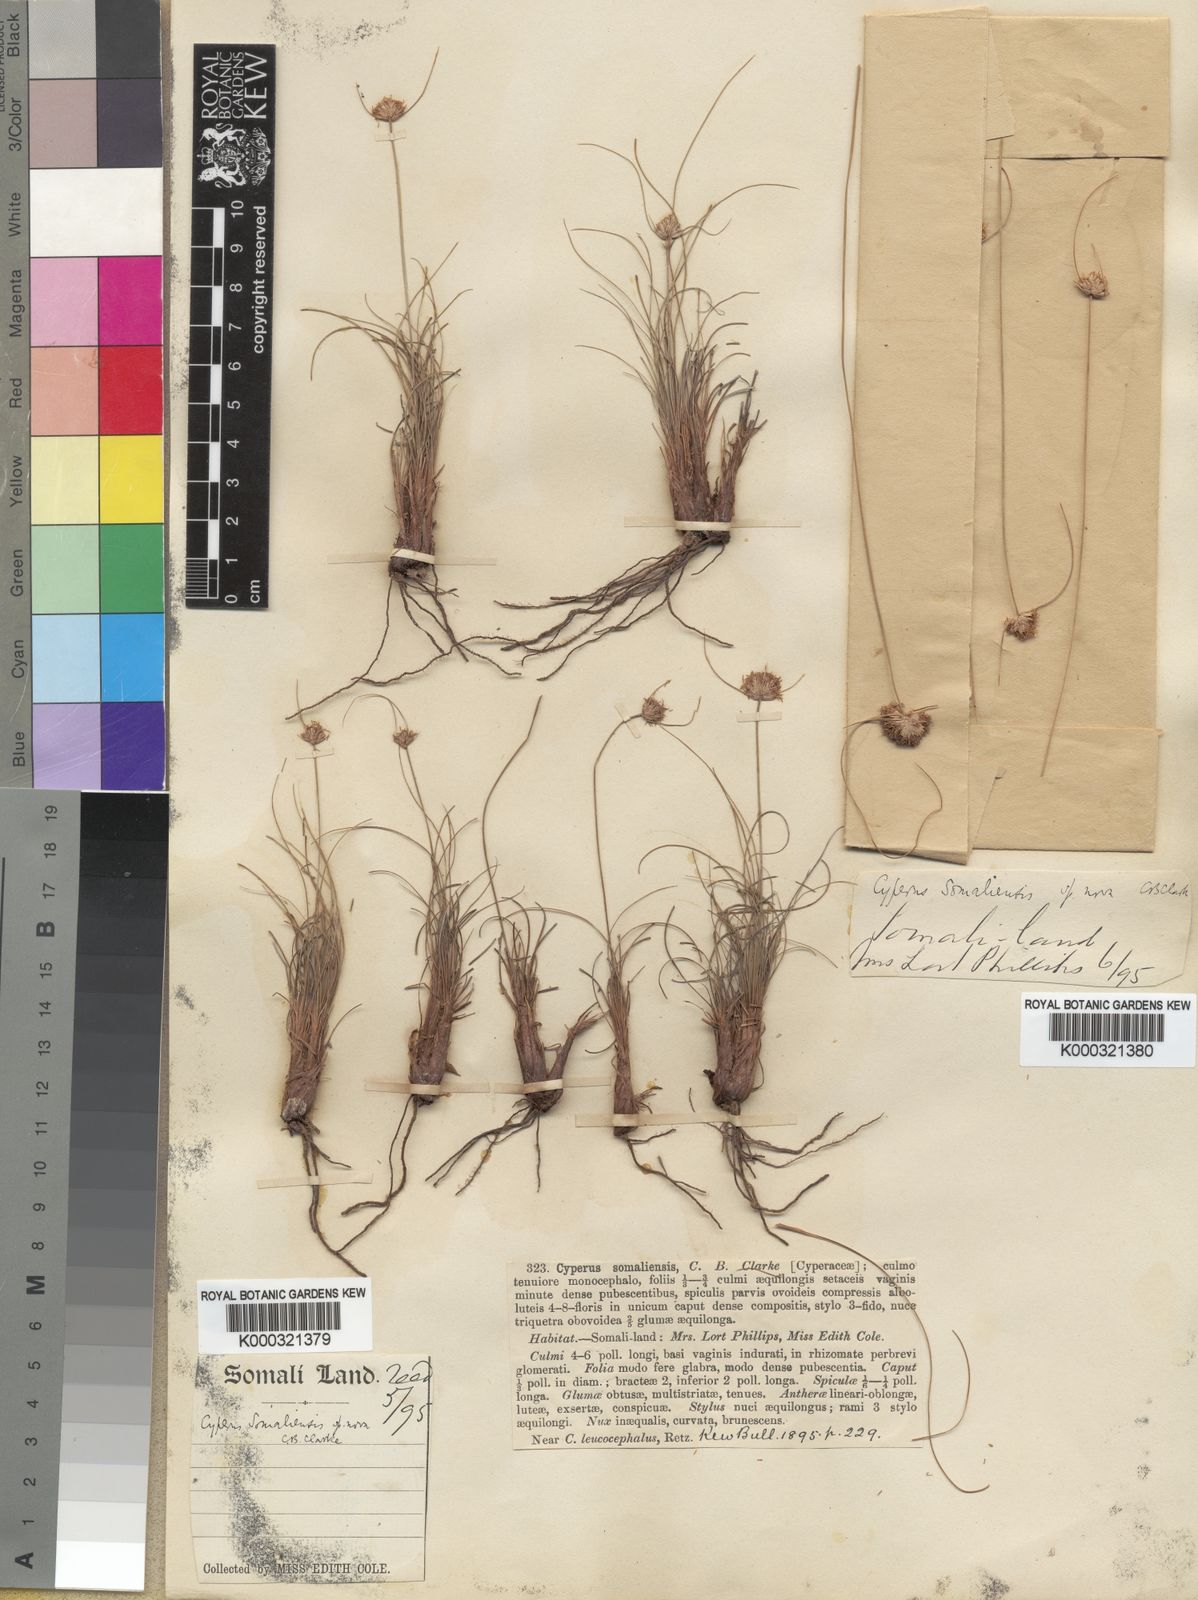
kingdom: Plantae
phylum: Tracheophyta
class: Liliopsida
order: Poales
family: Cyperaceae
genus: Cyperus
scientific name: Cyperus somaliensis
